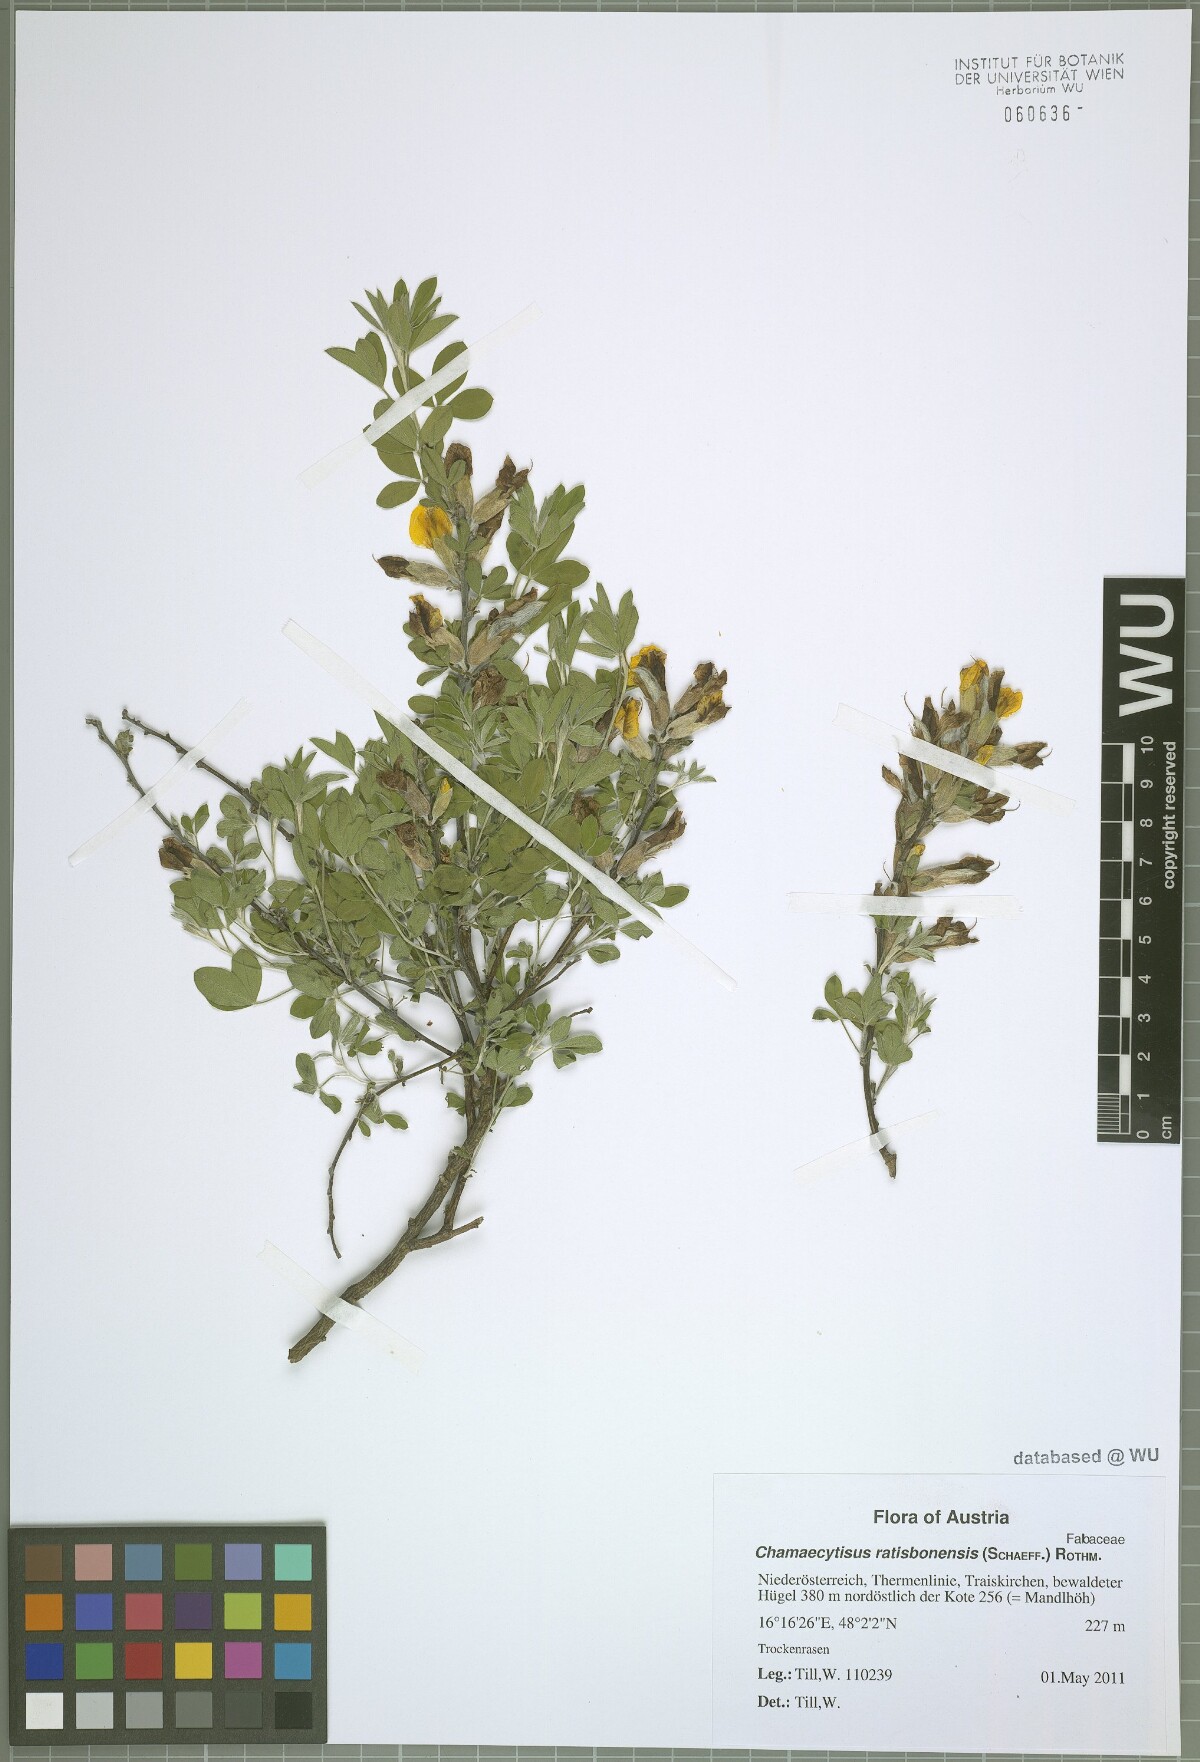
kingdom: Plantae
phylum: Tracheophyta
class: Magnoliopsida
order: Fabales
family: Fabaceae
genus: Chamaecytisus
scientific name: Chamaecytisus ratisbonensis
